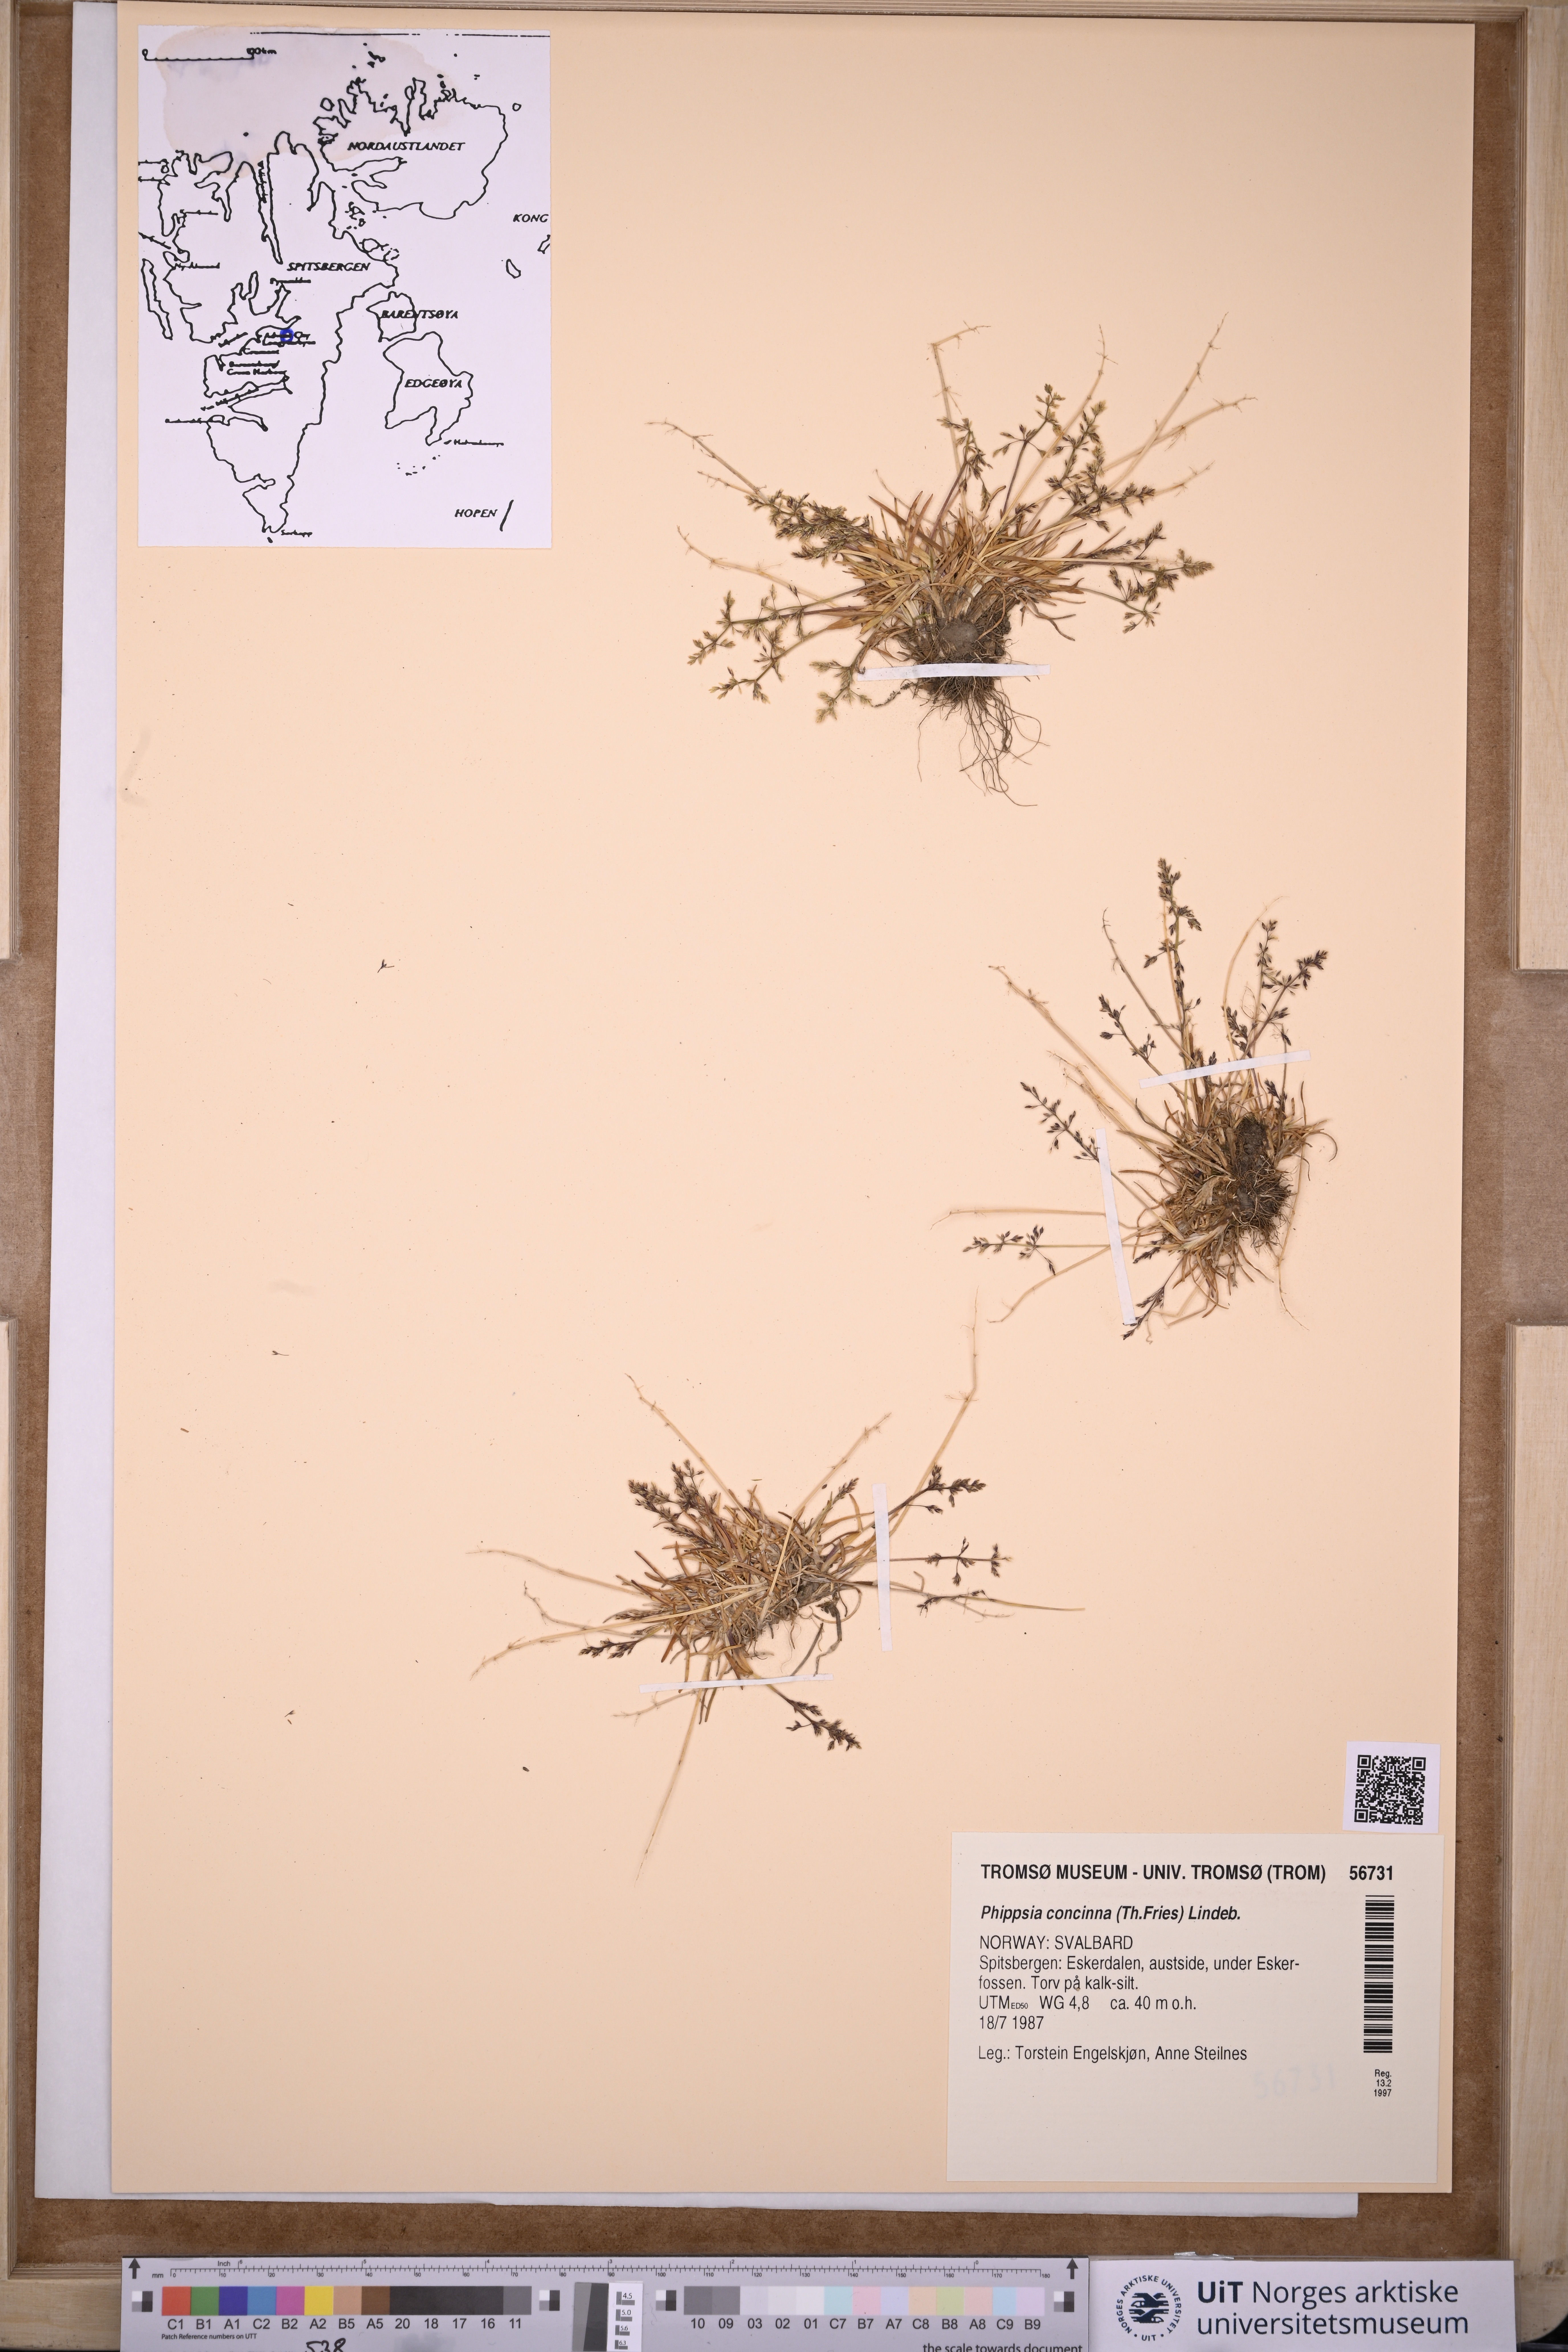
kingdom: Plantae
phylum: Tracheophyta
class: Liliopsida
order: Poales
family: Poaceae
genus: Phippsia
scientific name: Phippsia concinna
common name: Snowgrass
